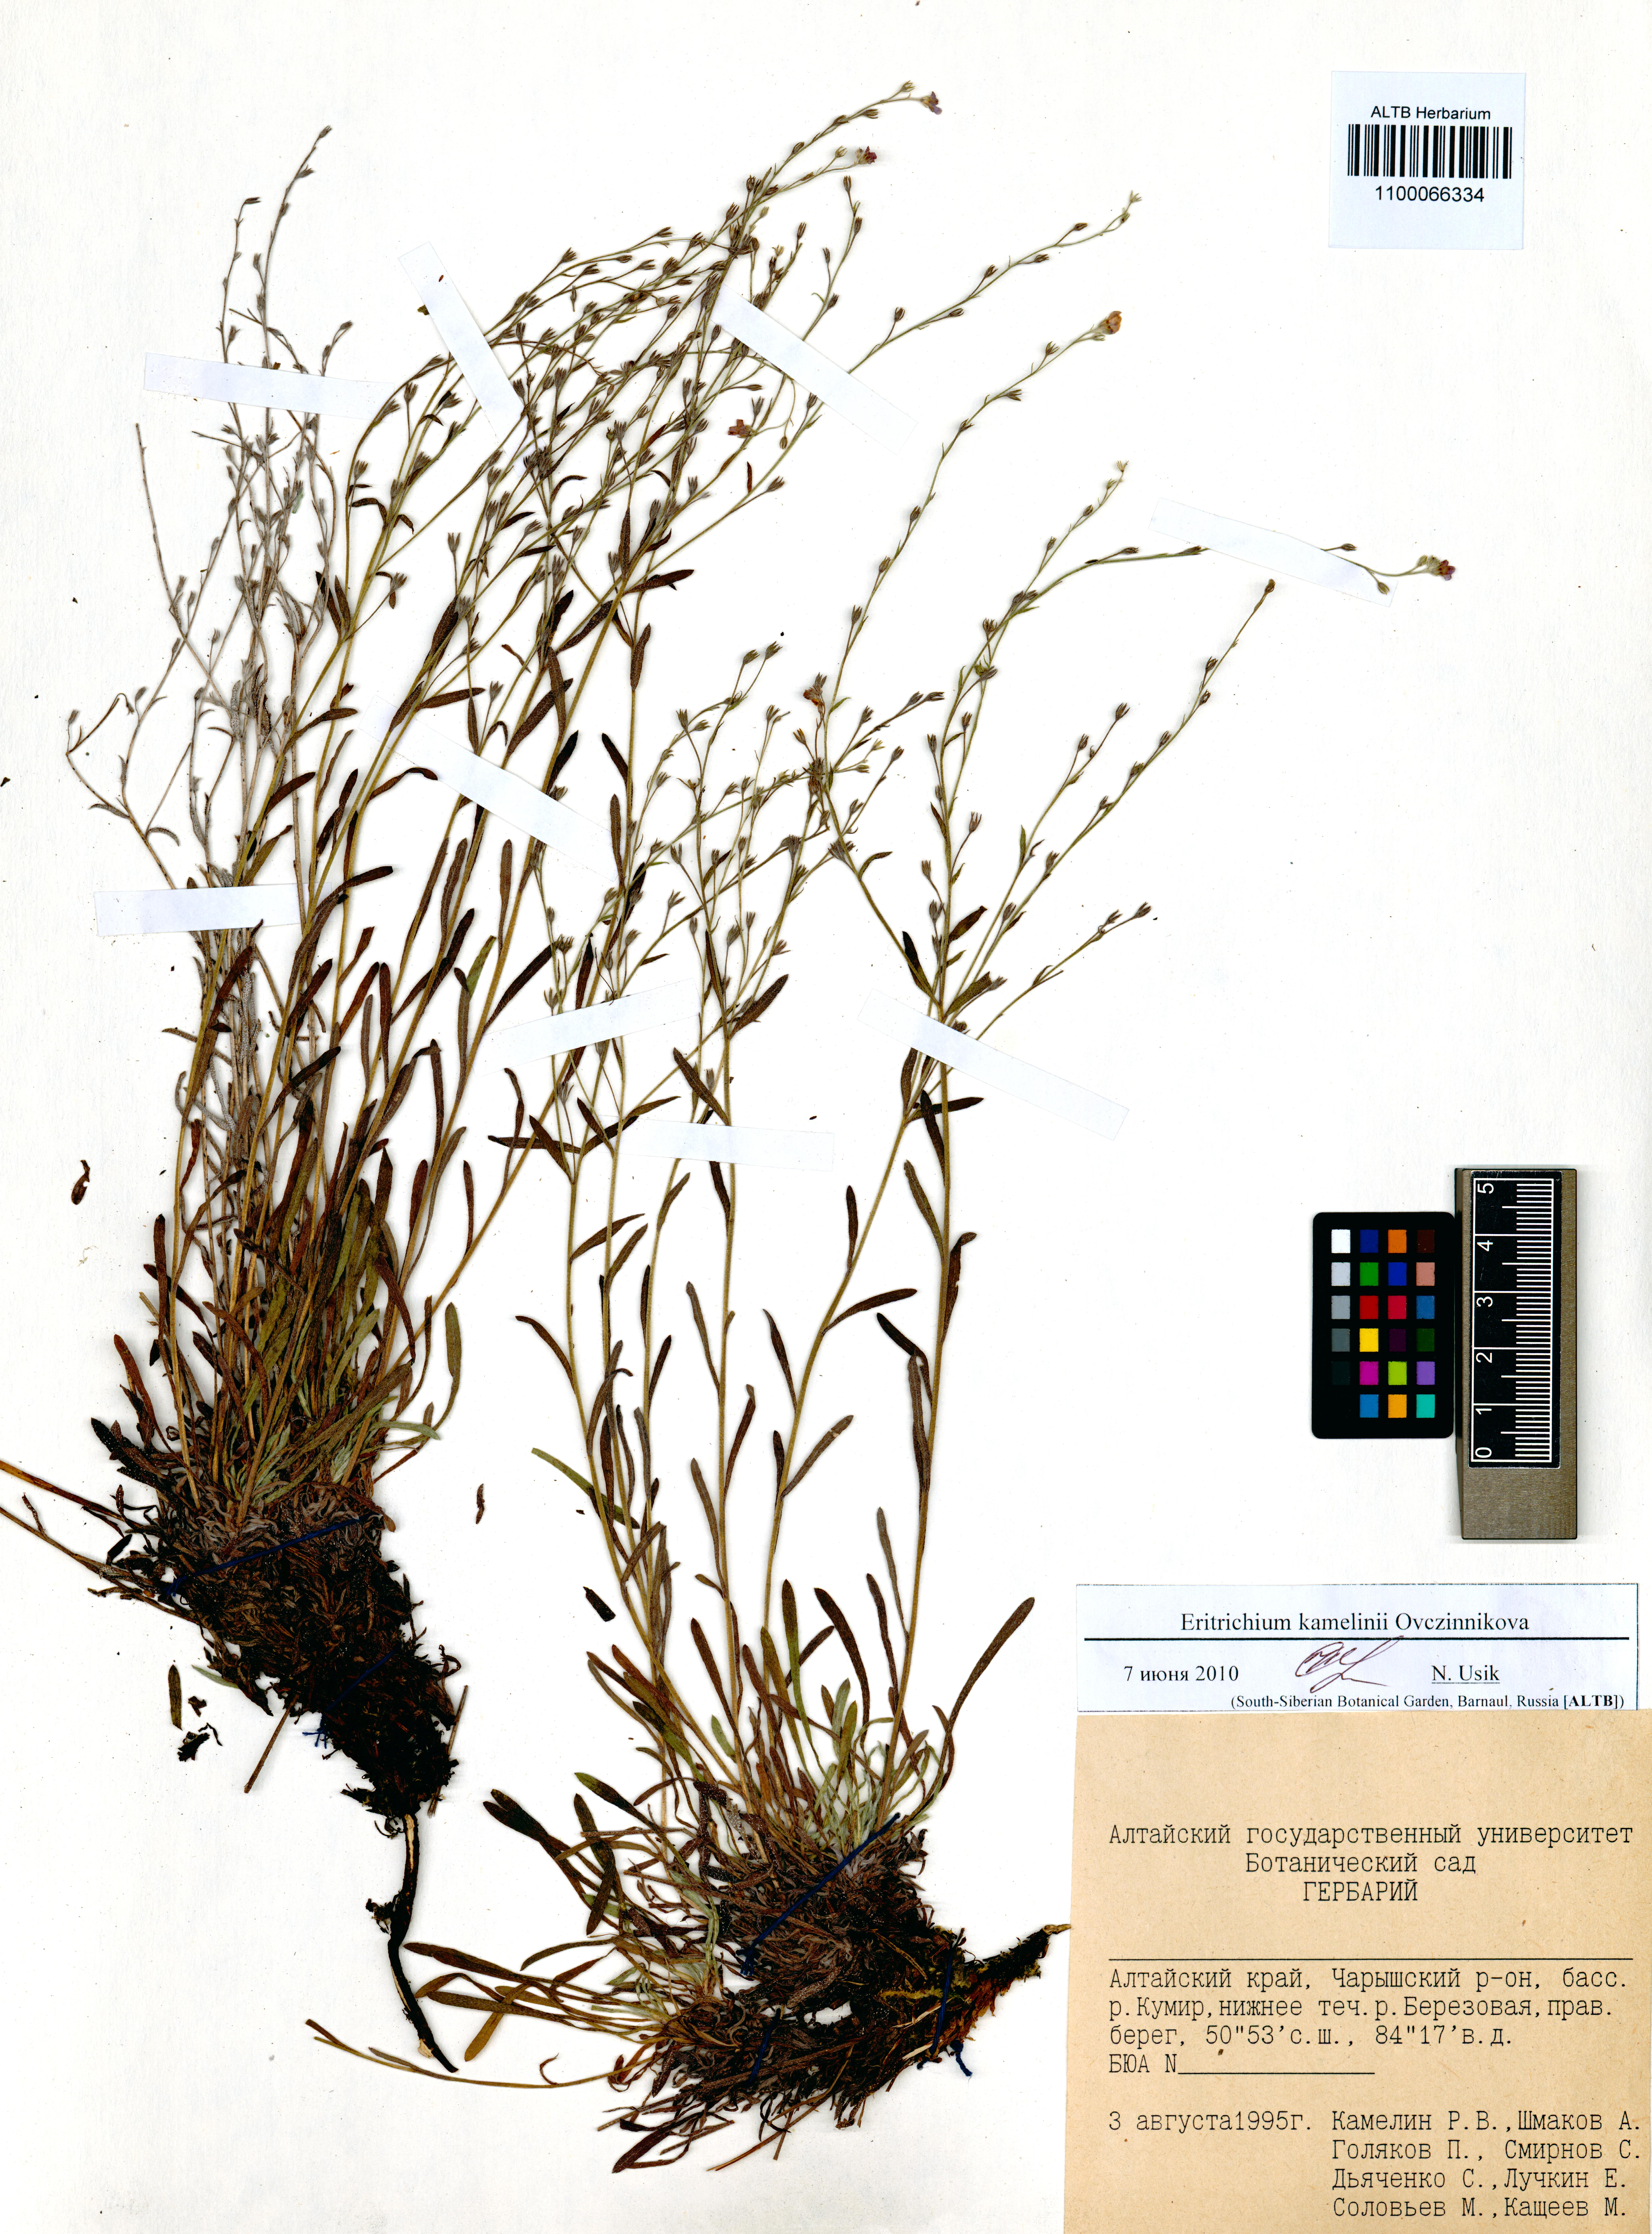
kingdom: Plantae
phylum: Tracheophyta
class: Magnoliopsida
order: Boraginales
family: Boraginaceae
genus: Eritrichium
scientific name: Eritrichium kamelinii
